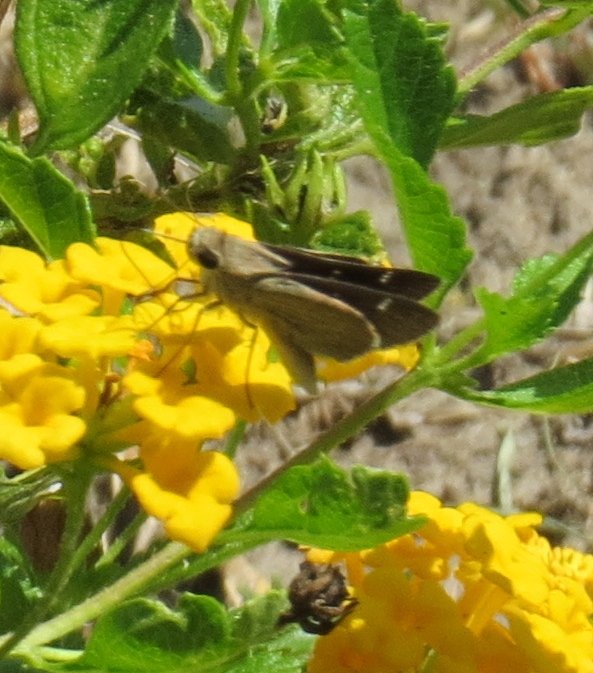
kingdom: Animalia
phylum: Arthropoda
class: Insecta
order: Lepidoptera
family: Hesperiidae
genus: Lerodea
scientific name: Lerodea eufala
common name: Eufala Skipper
